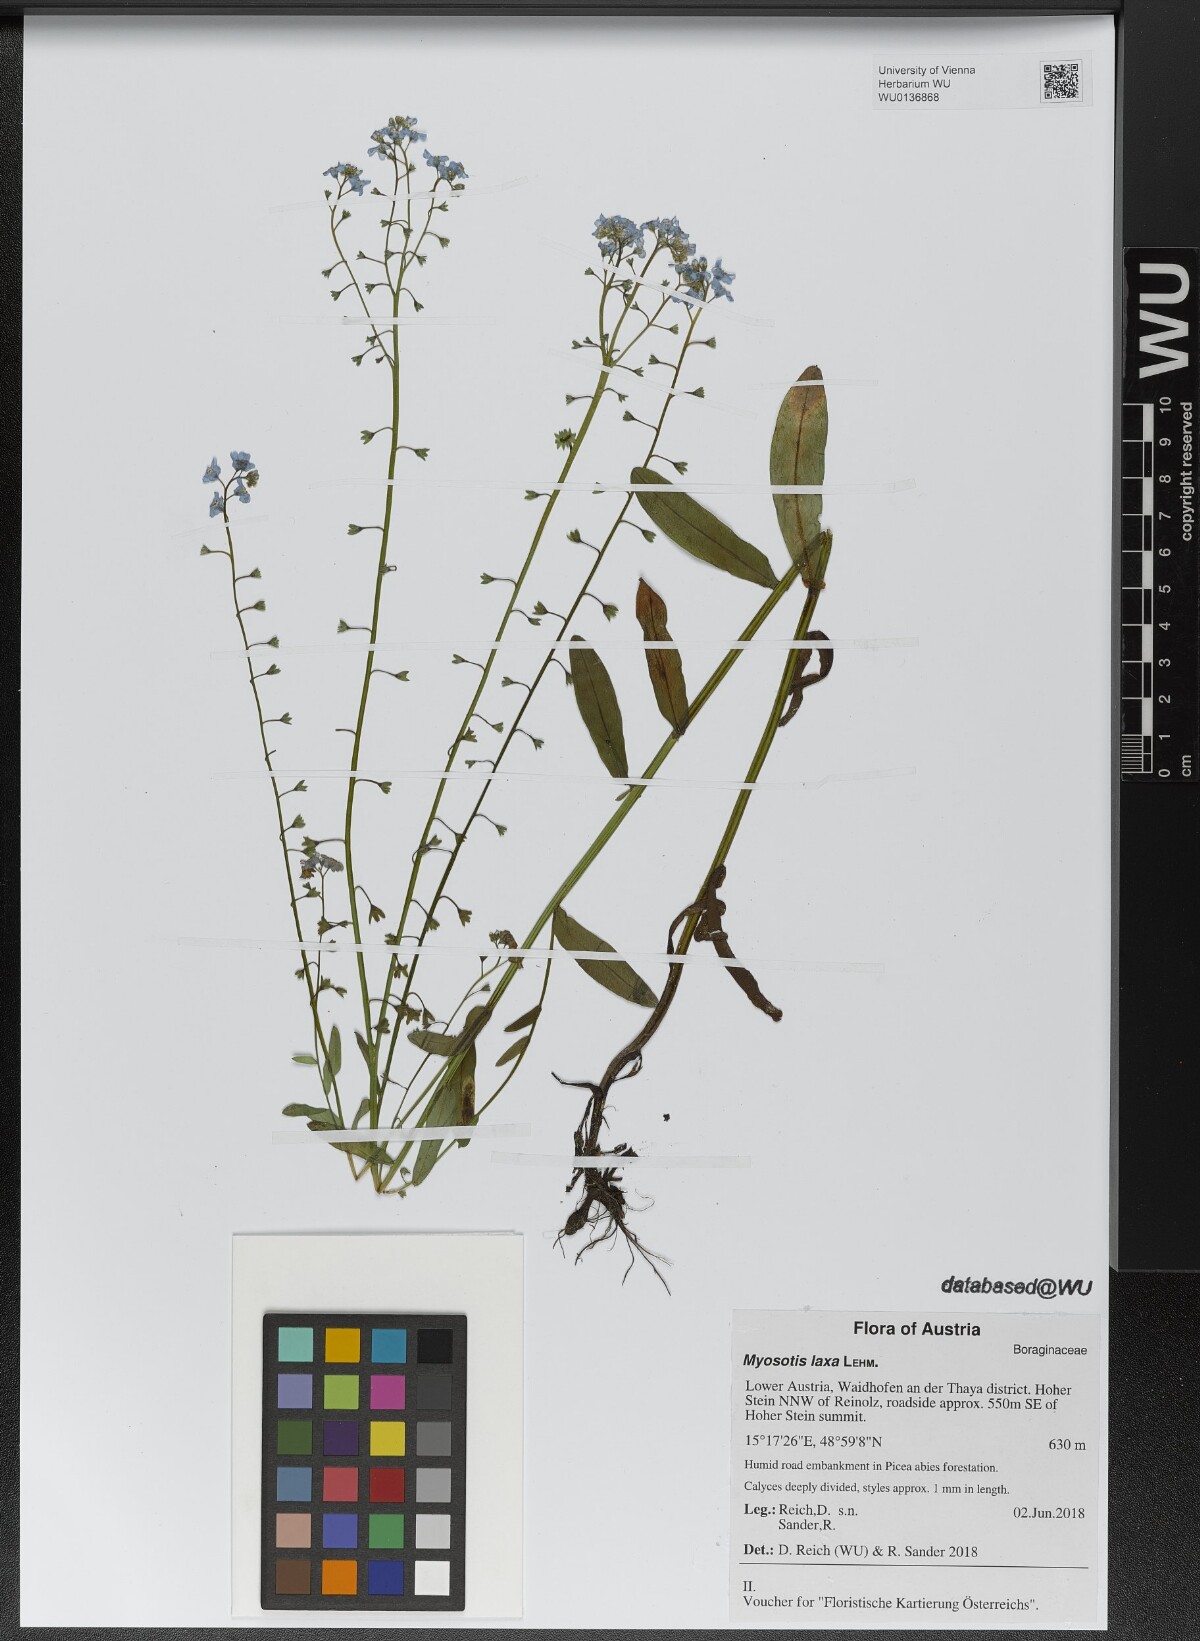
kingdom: Plantae
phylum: Tracheophyta
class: Magnoliopsida
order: Boraginales
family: Boraginaceae
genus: Myosotis
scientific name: Myosotis laxa
